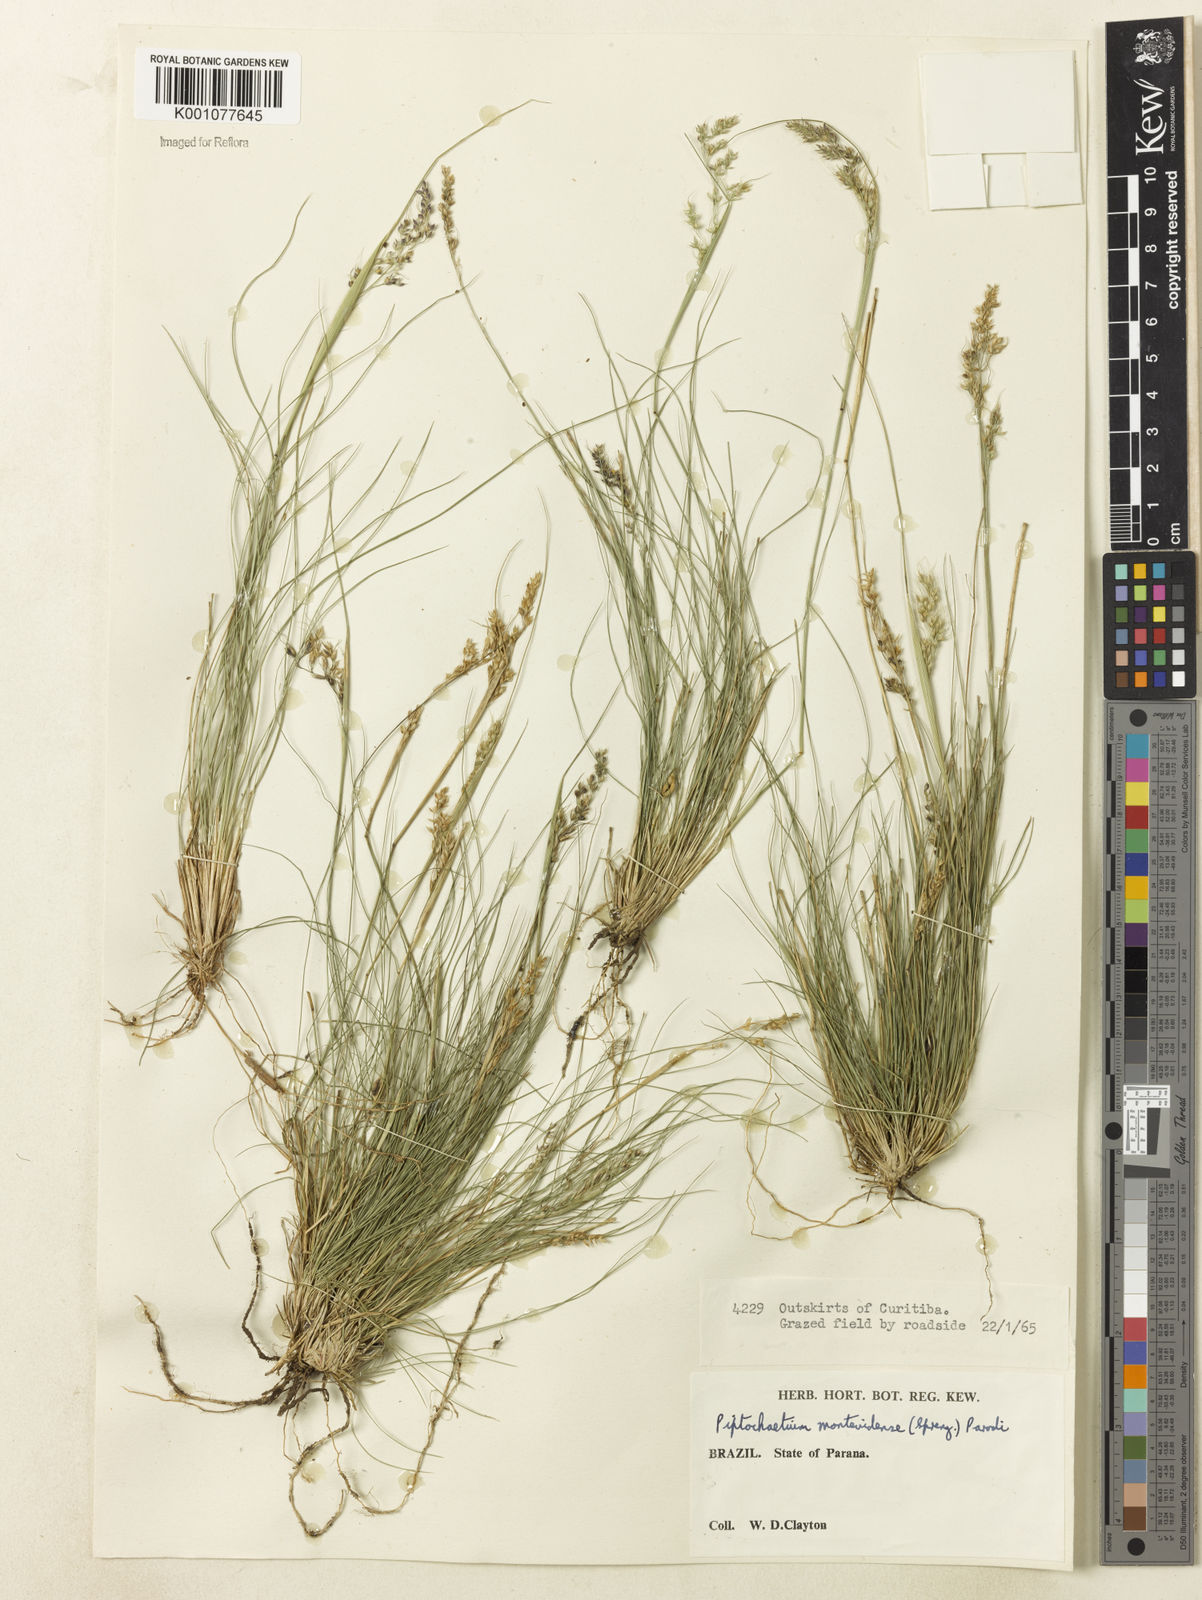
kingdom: Plantae
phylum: Tracheophyta
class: Liliopsida
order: Poales
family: Poaceae
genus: Piptochaetium
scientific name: Piptochaetium montevidense
